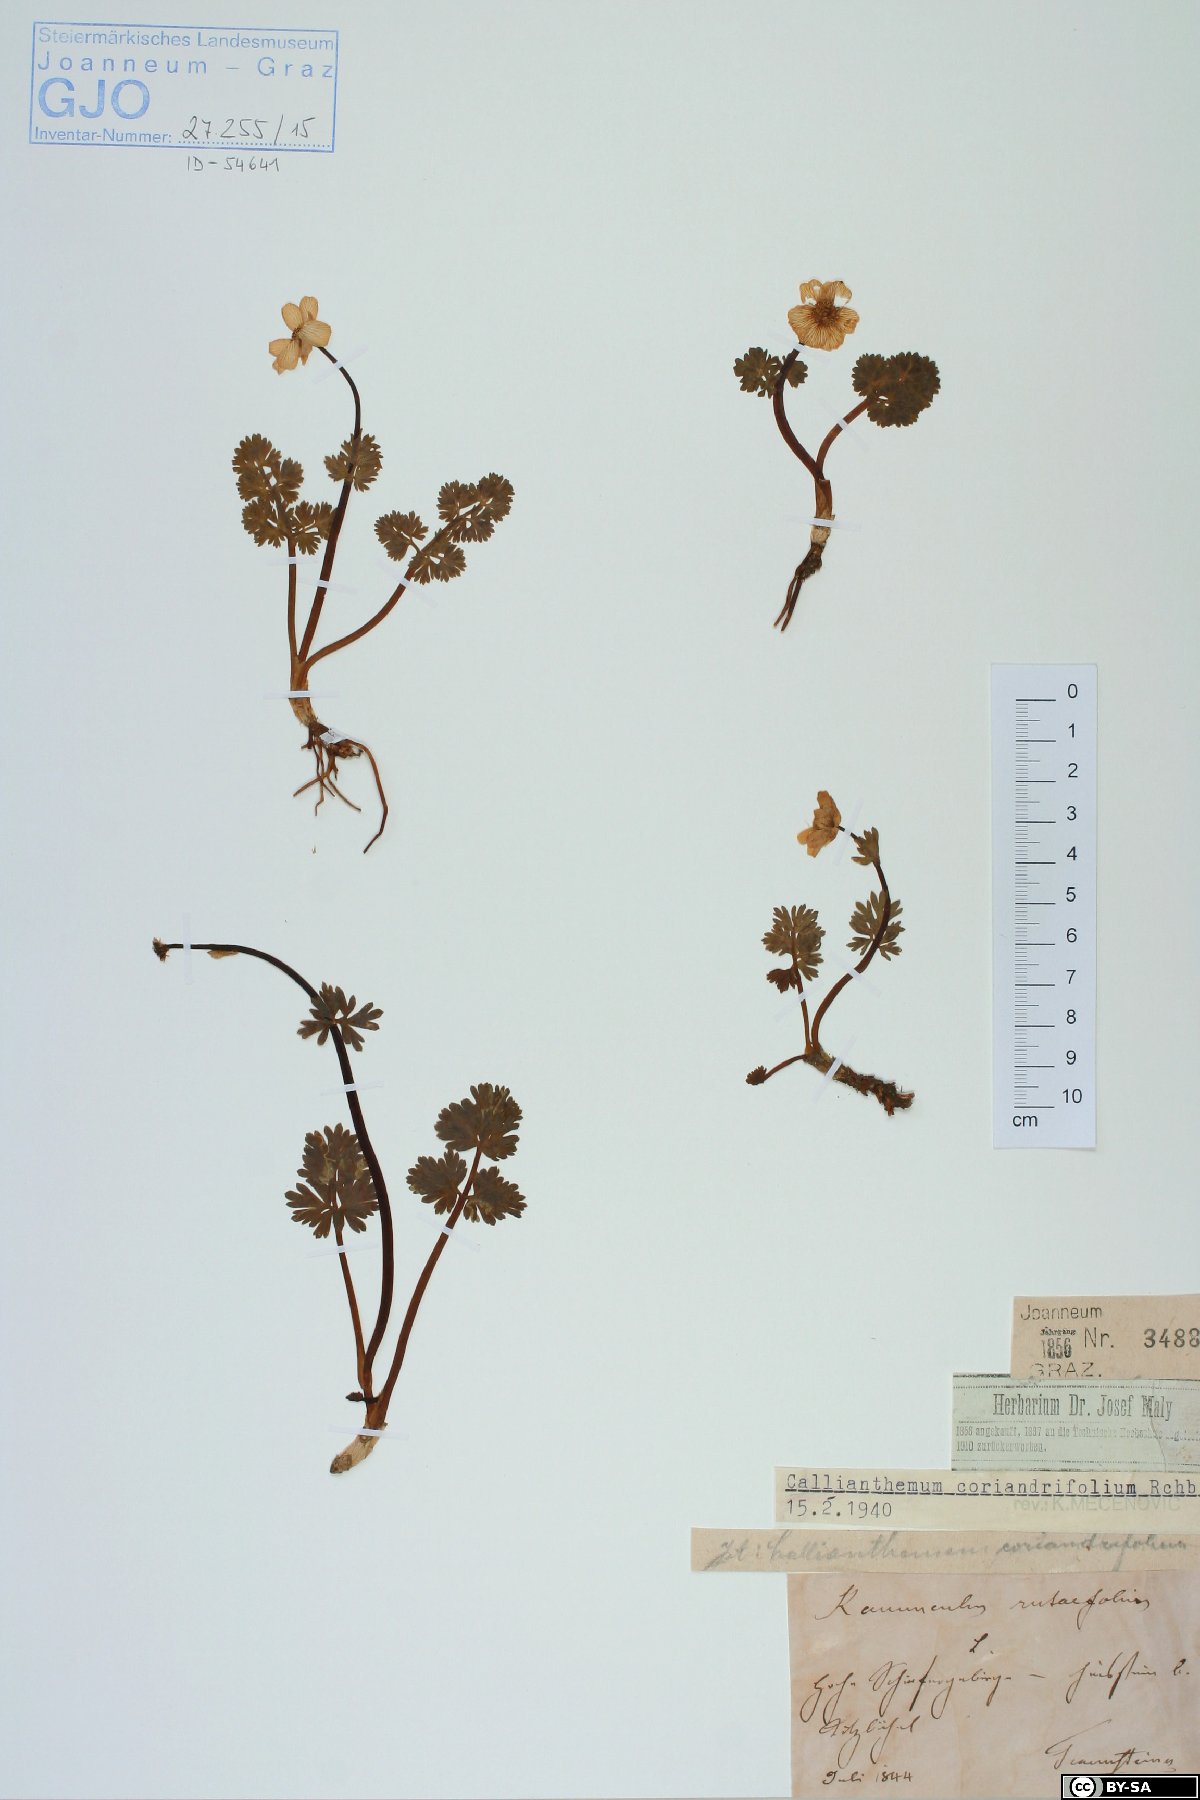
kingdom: Plantae
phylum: Tracheophyta
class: Magnoliopsida
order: Ranunculales
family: Ranunculaceae
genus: Callianthemum
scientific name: Callianthemum coriandrifolium
